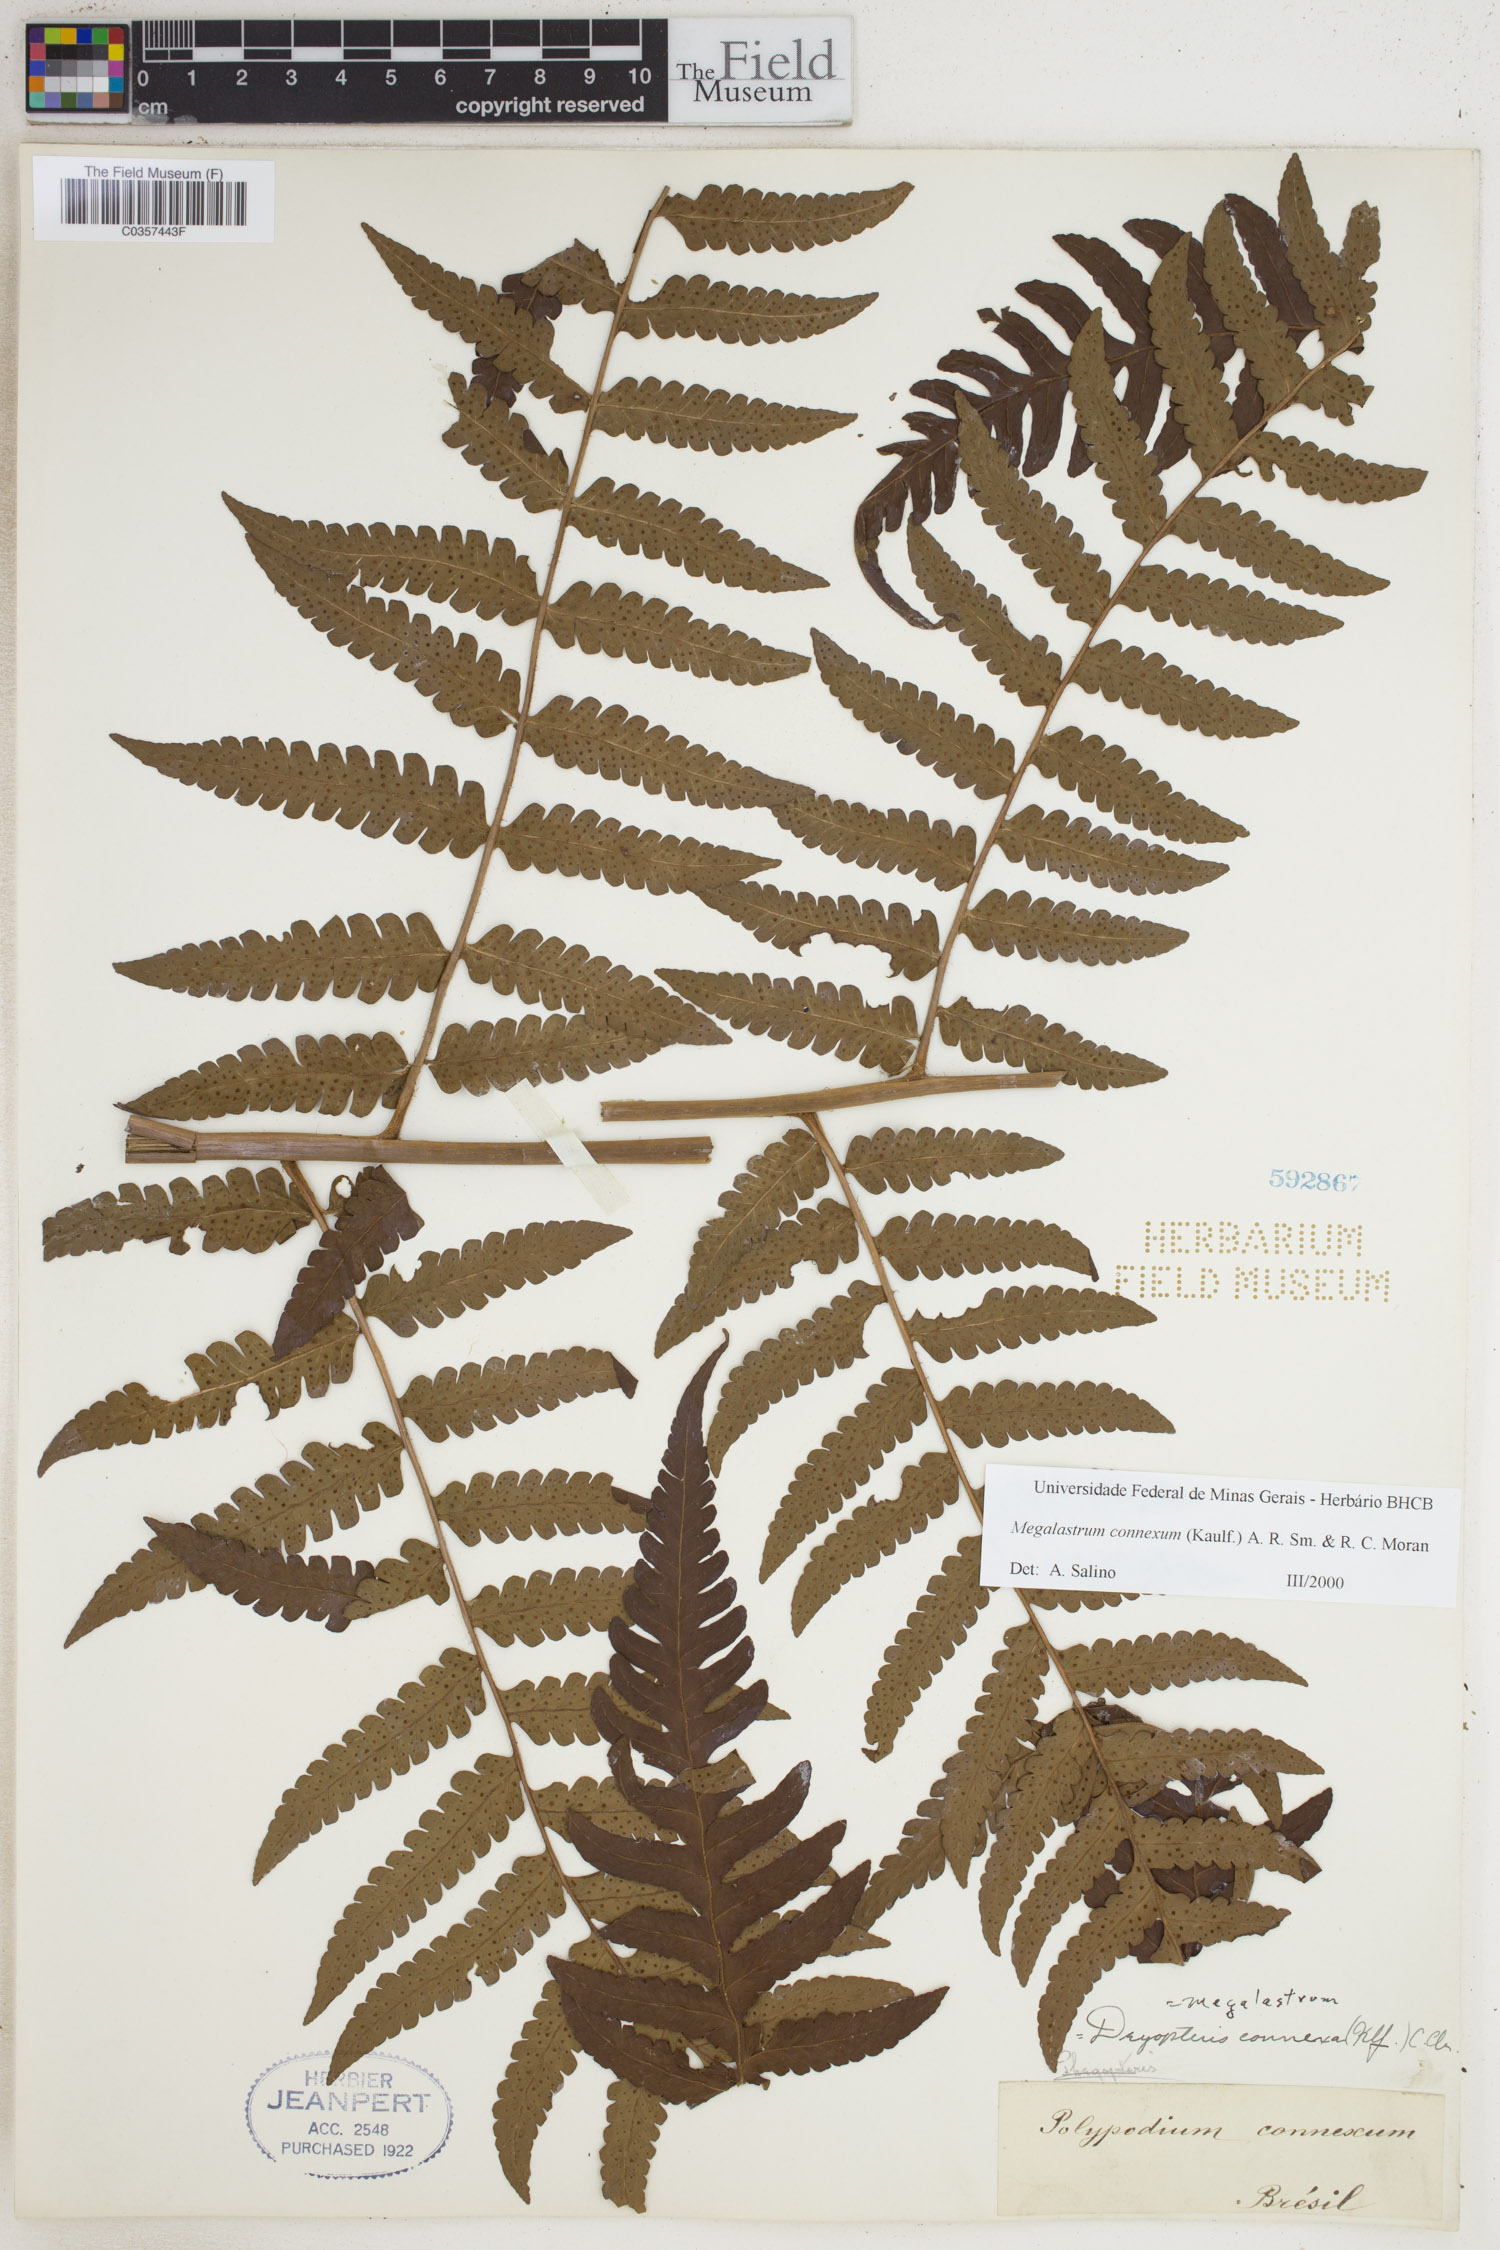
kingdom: Plantae
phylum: Tracheophyta
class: Polypodiopsida
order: Polypodiales
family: Dryopteridaceae
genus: Megalastrum
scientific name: Megalastrum connexum
